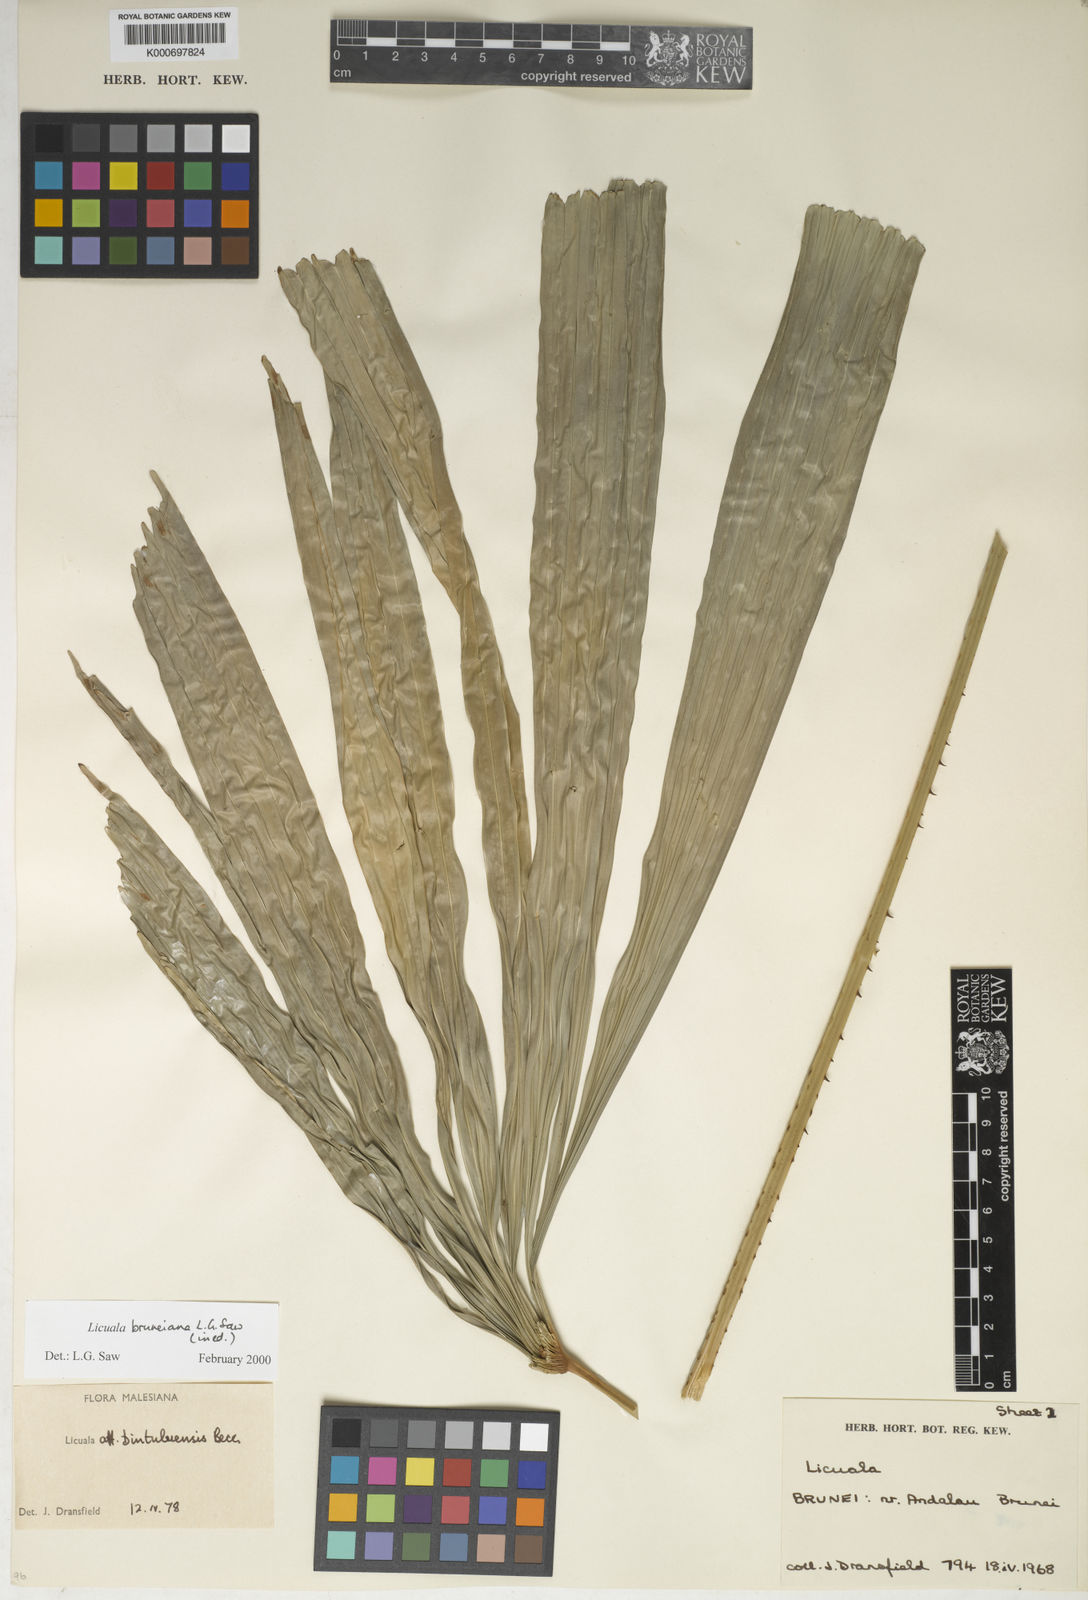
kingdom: Plantae
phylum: Tracheophyta
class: Liliopsida
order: Arecales
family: Arecaceae
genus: Licuala
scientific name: Licuala bruneiana
